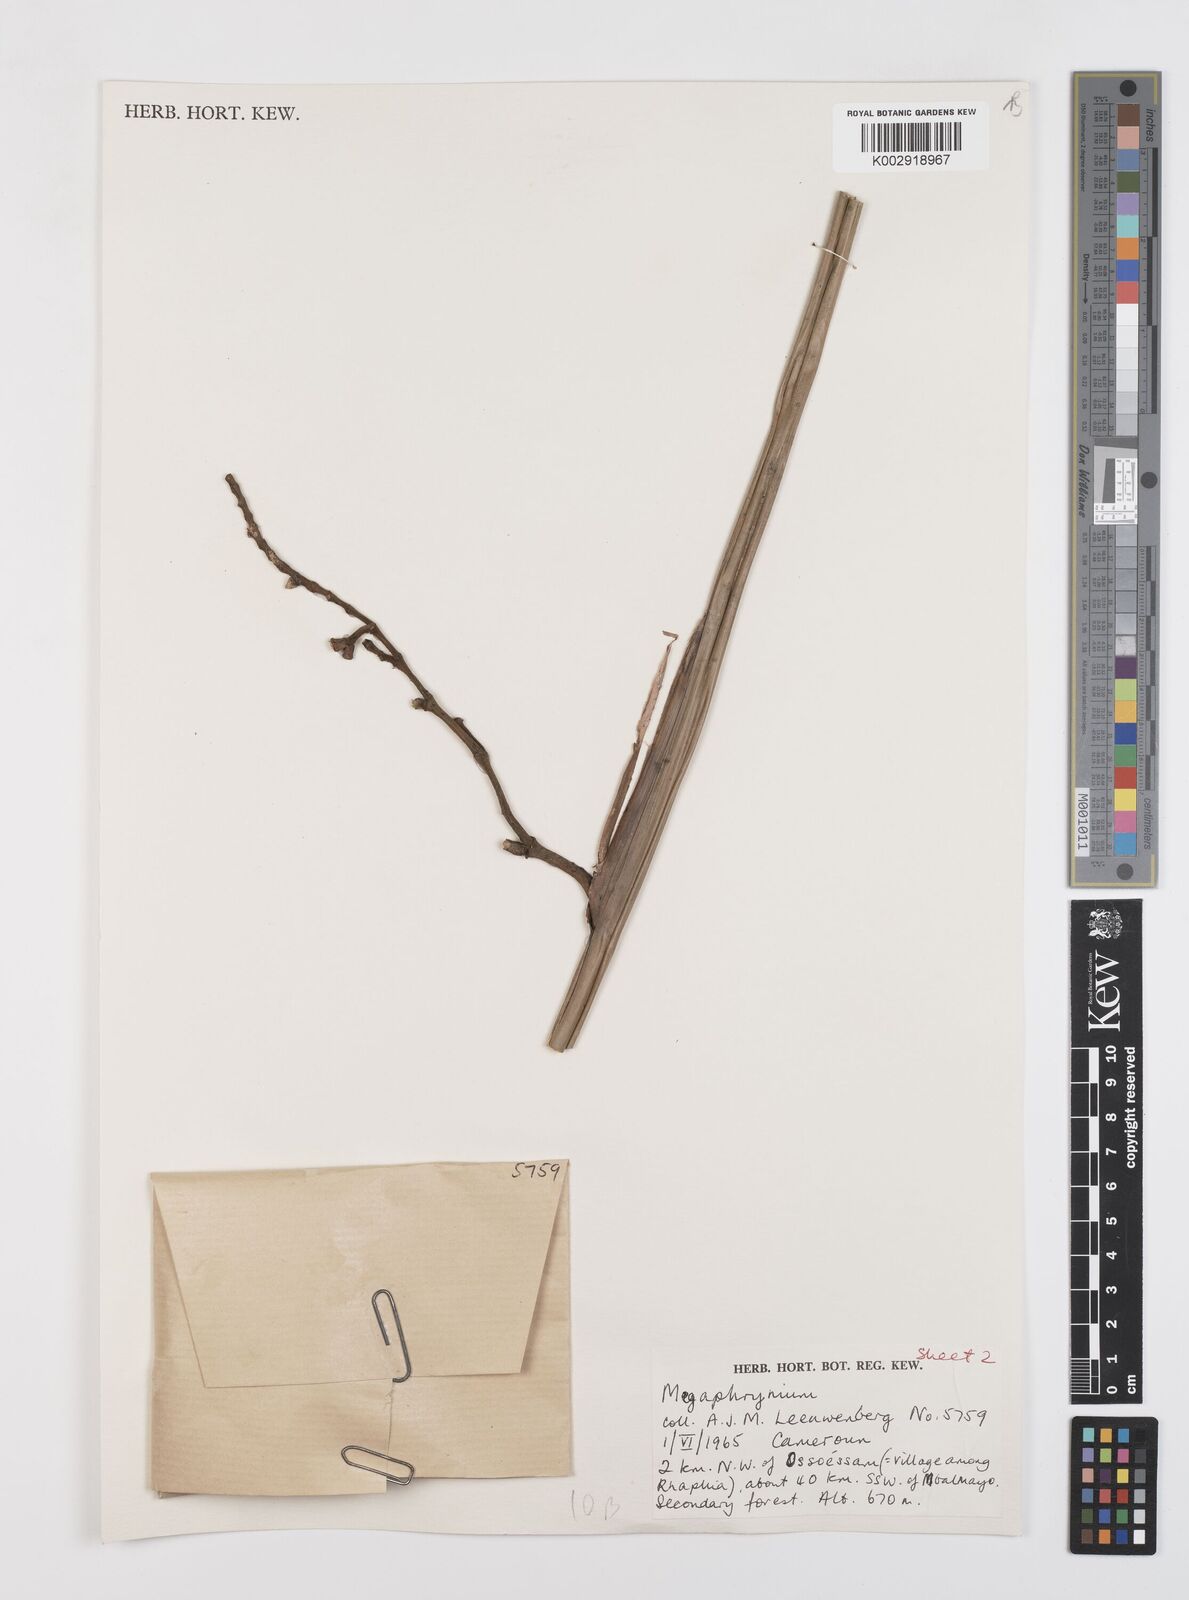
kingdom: Plantae
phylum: Tracheophyta
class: Liliopsida
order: Zingiberales
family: Marantaceae
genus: Megaphrynium
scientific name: Megaphrynium
